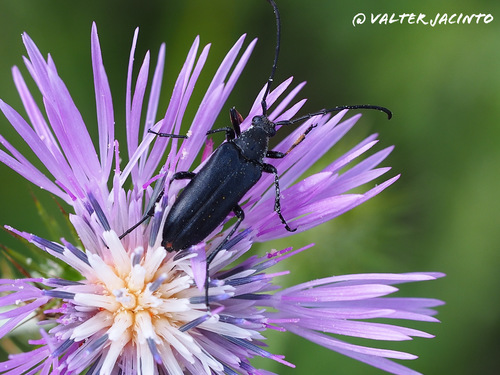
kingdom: Animalia
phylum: Arthropoda
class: Insecta
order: Coleoptera
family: Cerambycidae
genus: Nustera
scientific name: Nustera distigma
